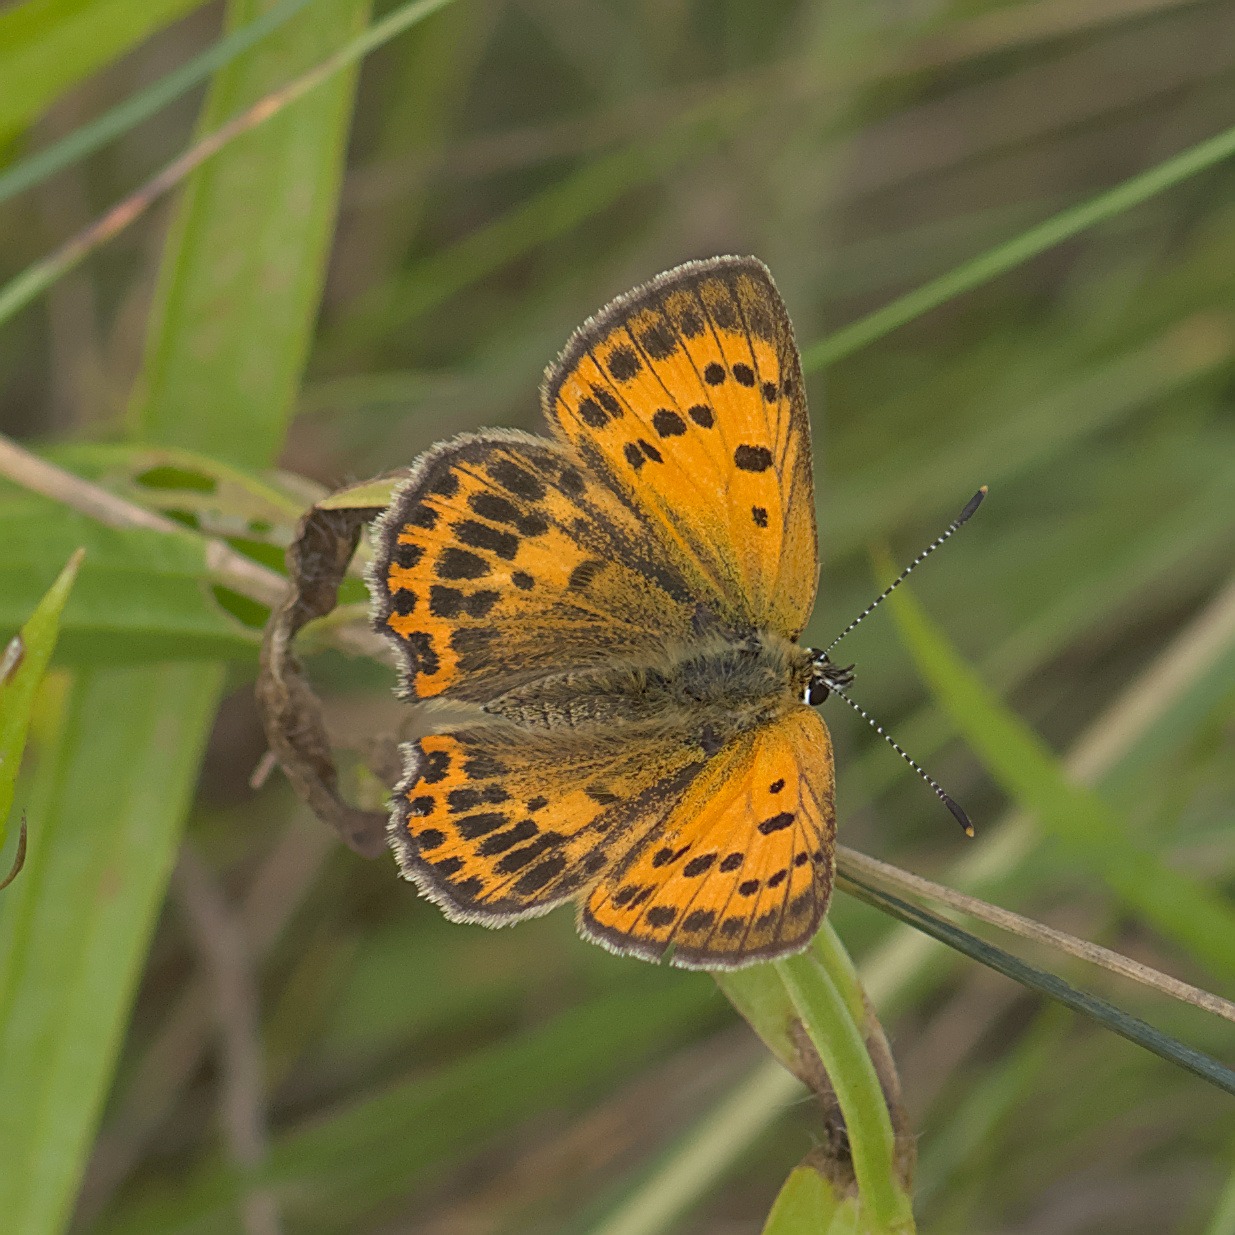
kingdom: Animalia
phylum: Arthropoda
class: Insecta
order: Lepidoptera
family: Lycaenidae
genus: Lycaena
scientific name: Lycaena virgaureae
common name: Dukatsommerfugl
